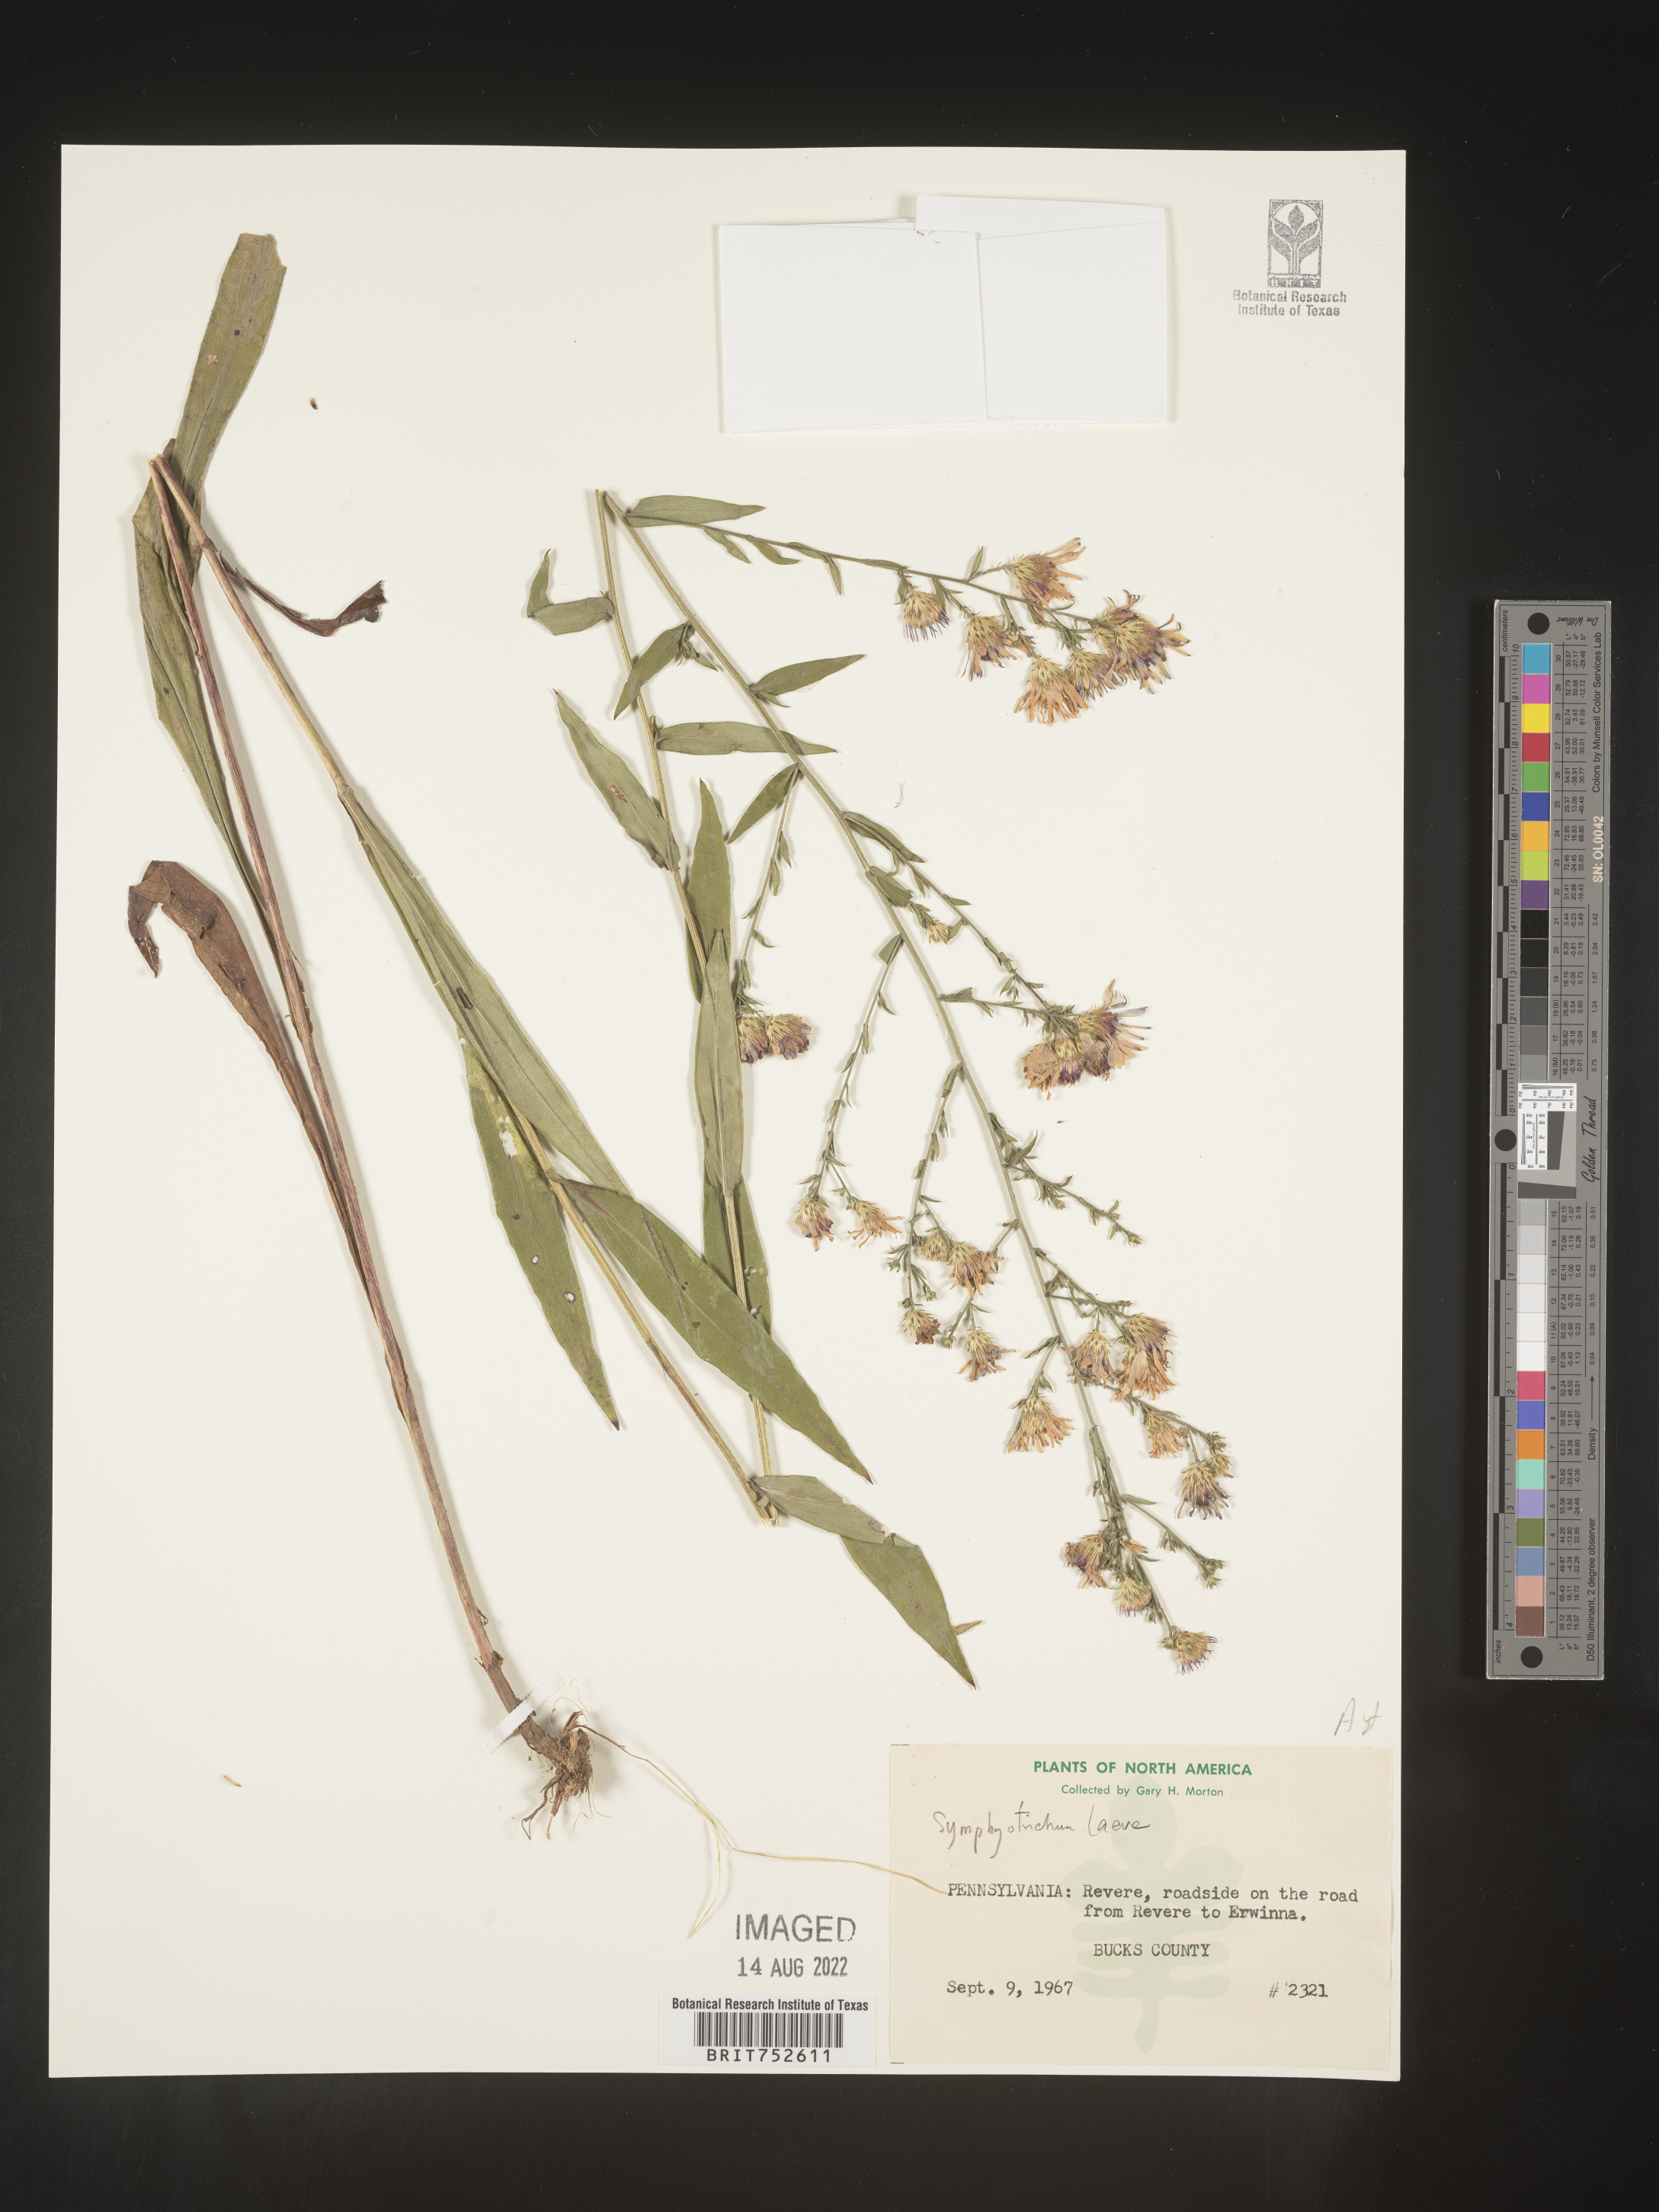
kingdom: Plantae
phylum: Tracheophyta
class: Magnoliopsida
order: Asterales
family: Asteraceae
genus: Symphyotrichum
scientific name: Symphyotrichum laeve
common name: Glaucous aster
